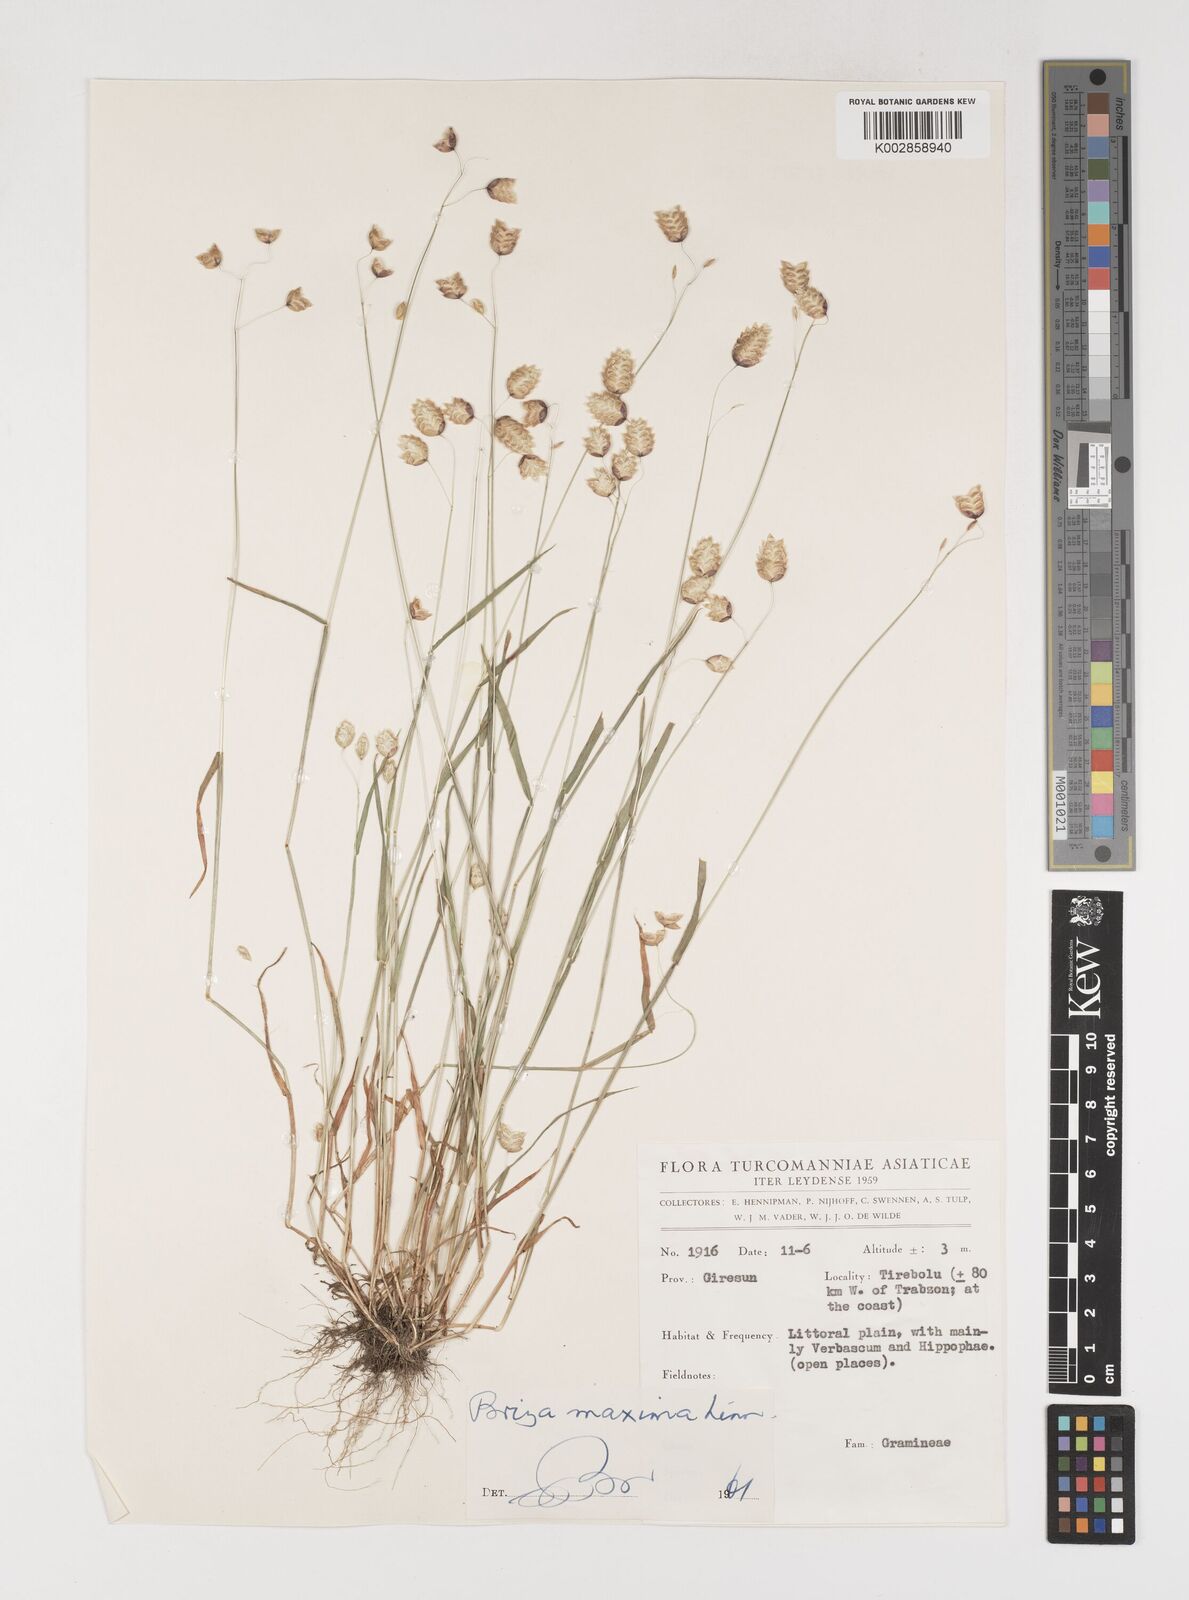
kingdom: Plantae
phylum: Tracheophyta
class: Liliopsida
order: Poales
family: Poaceae
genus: Briza
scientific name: Briza maxima
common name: Big quakinggrass
